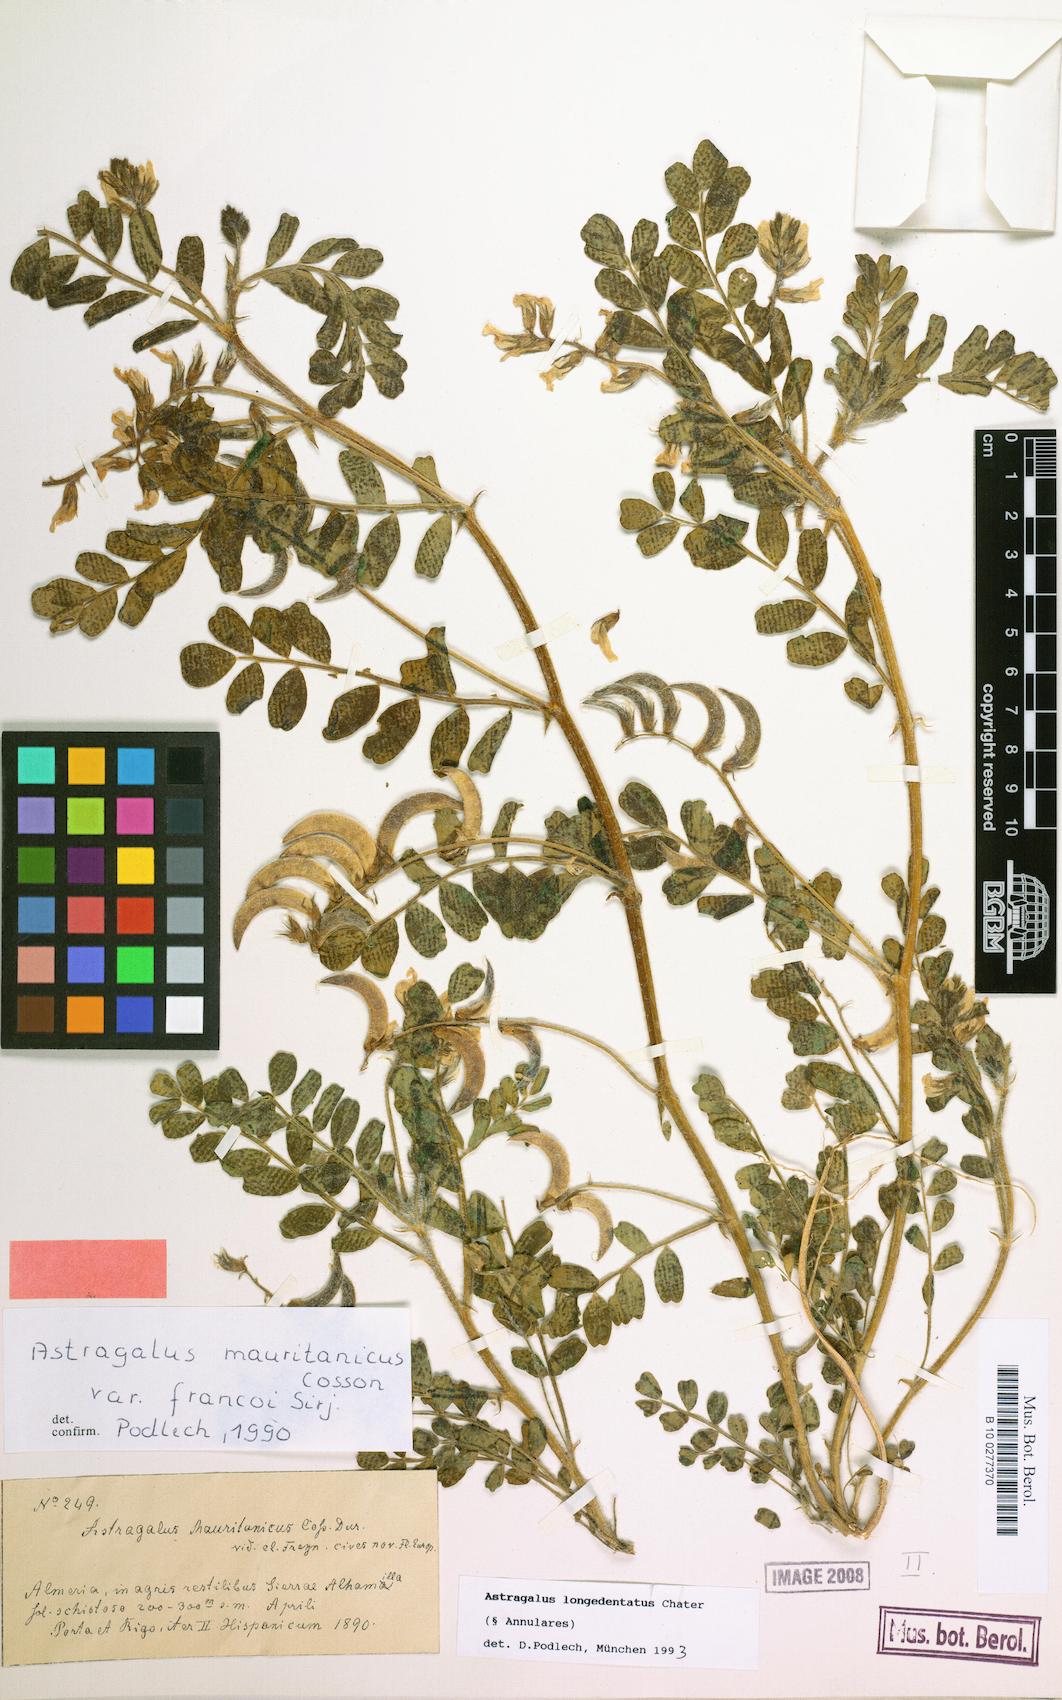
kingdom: Plantae
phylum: Tracheophyta
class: Magnoliopsida
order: Fabales
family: Fabaceae
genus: Astragalus
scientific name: Astragalus longidentatus
